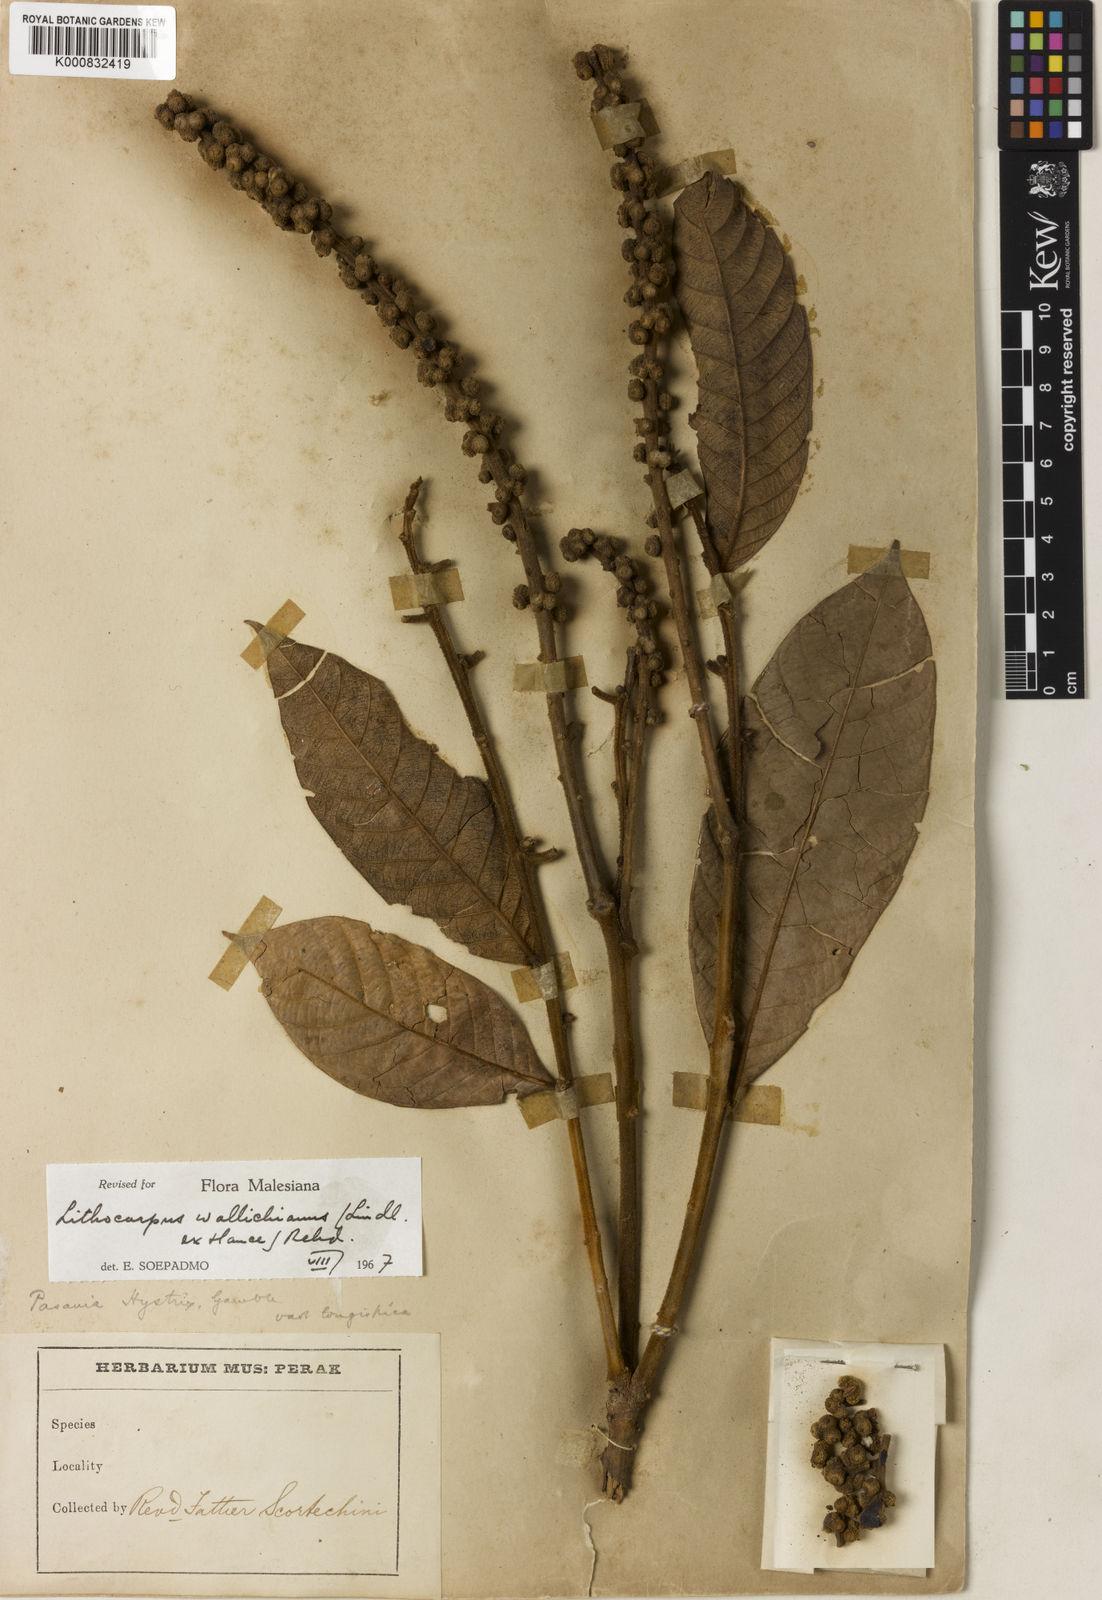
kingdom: Plantae
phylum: Tracheophyta
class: Magnoliopsida
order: Fagales
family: Fagaceae
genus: Lithocarpus
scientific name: Lithocarpus wallichianus
